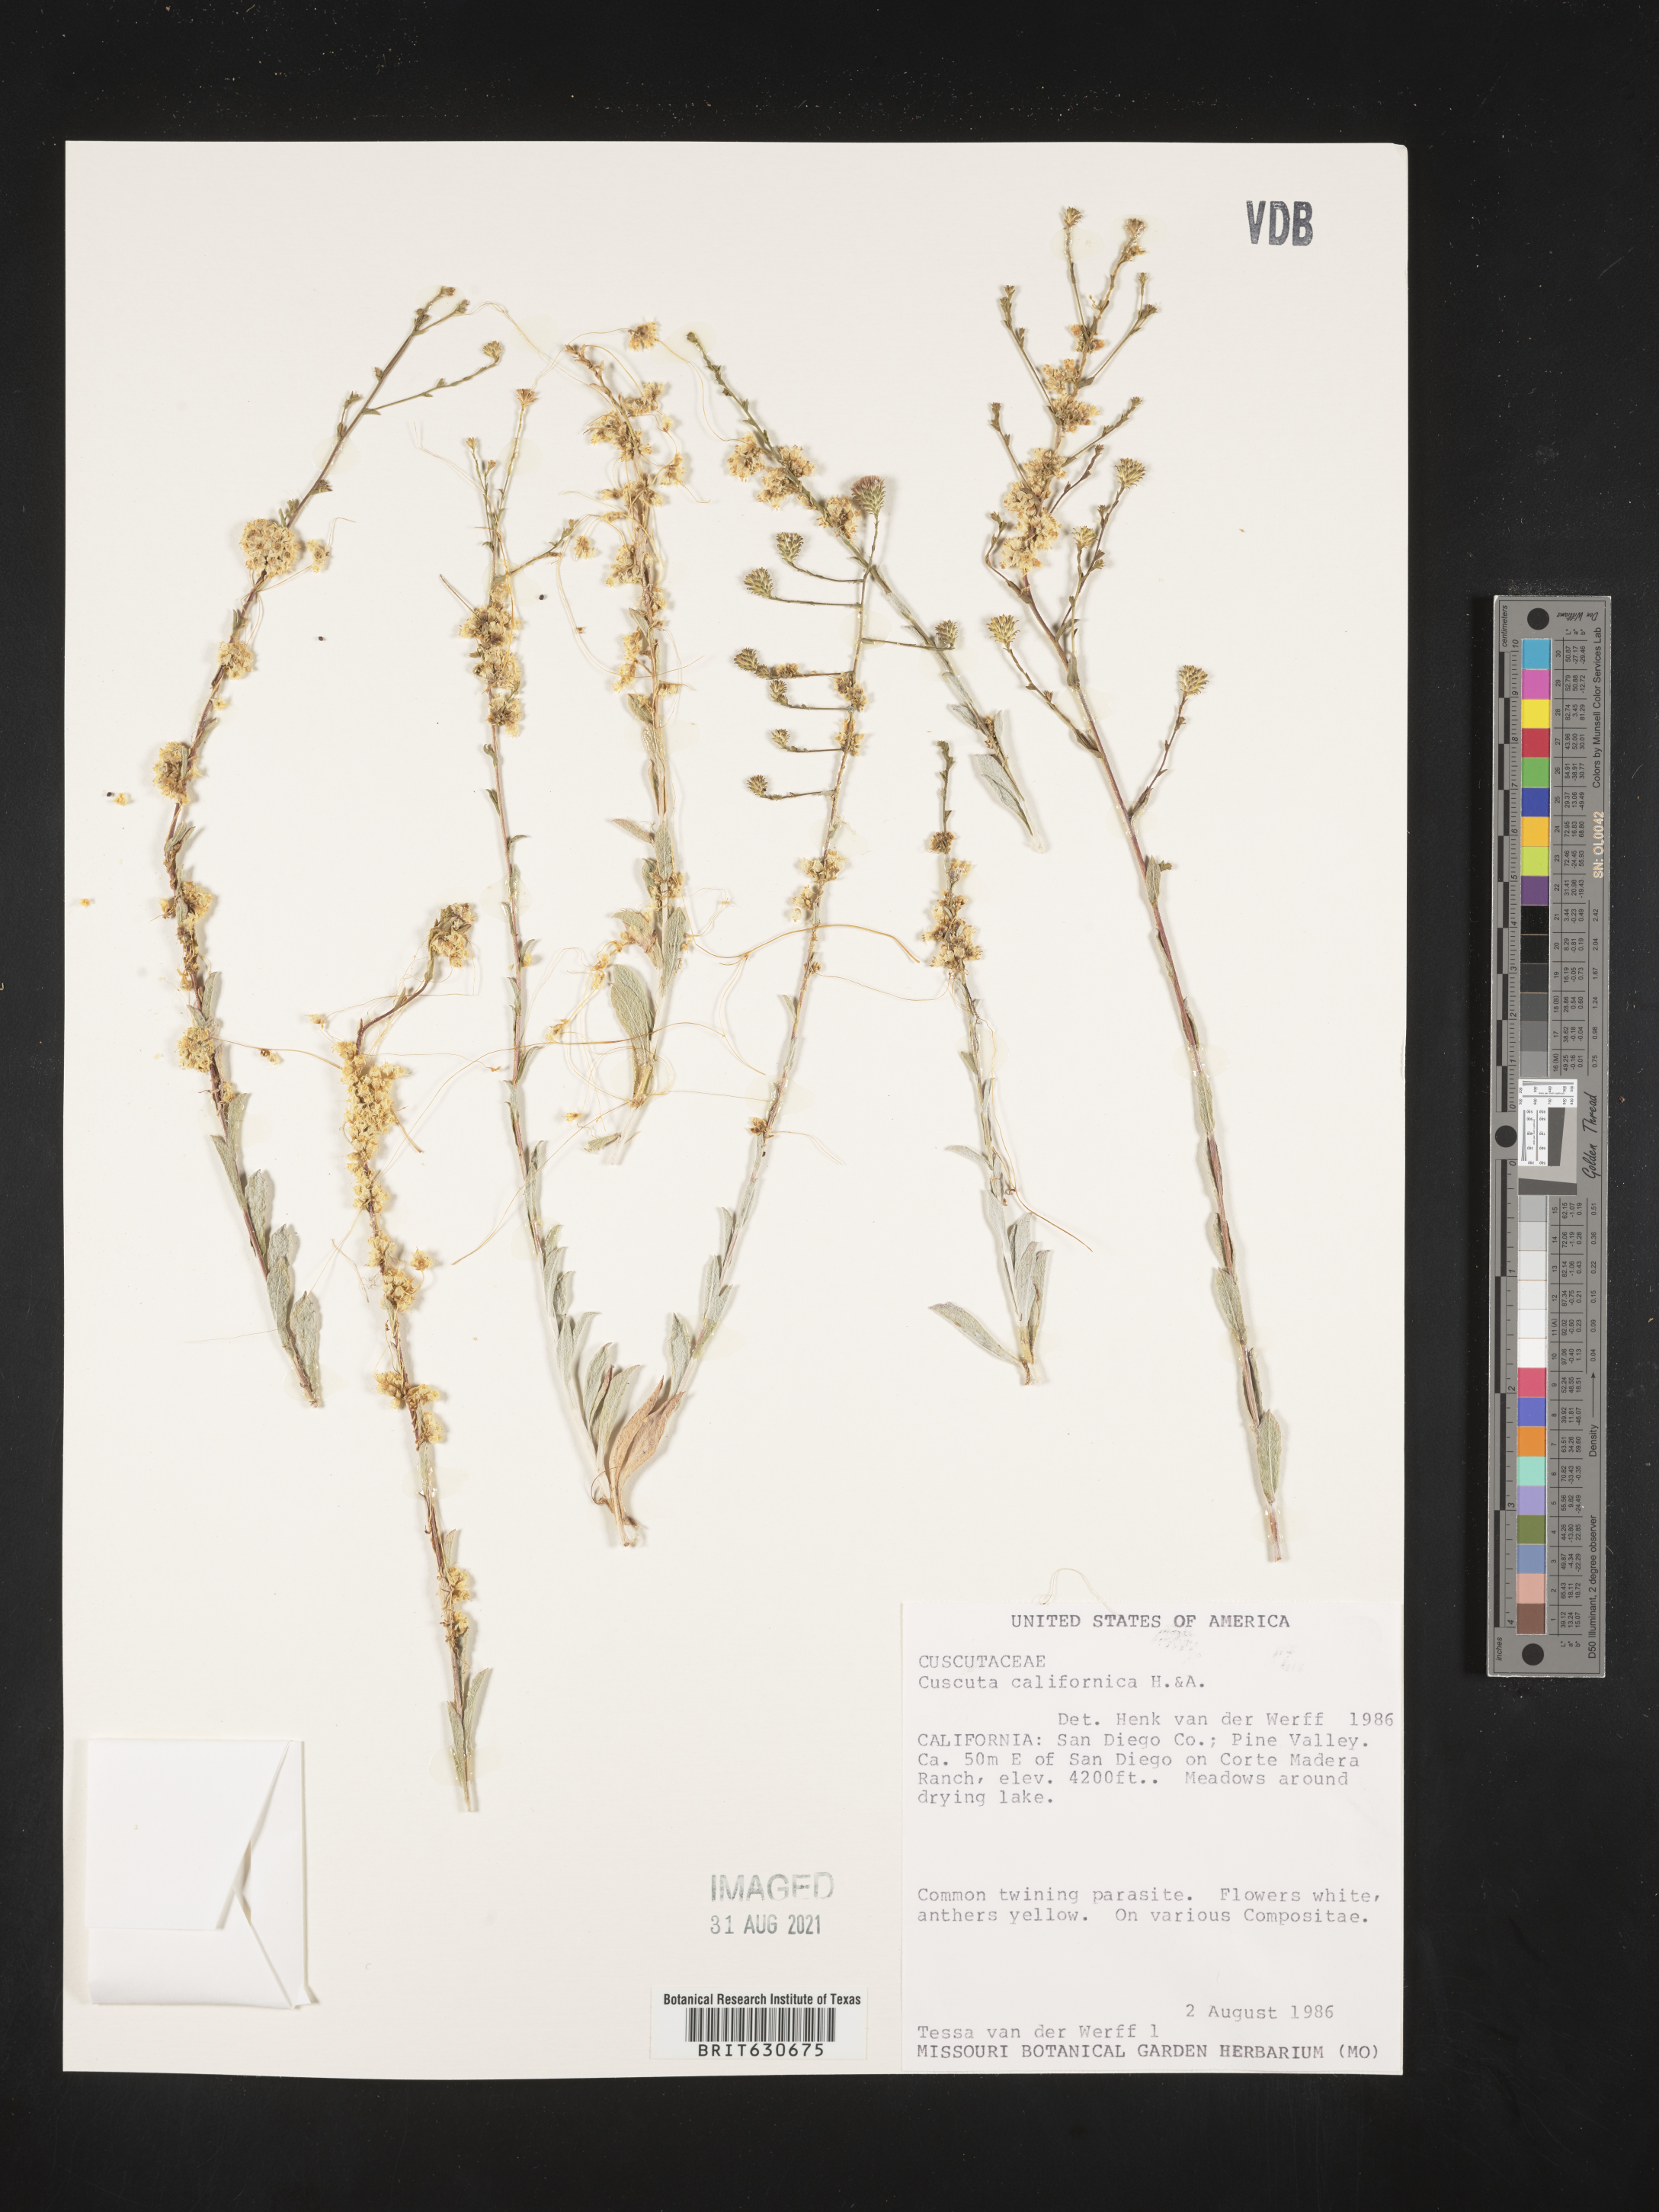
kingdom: Plantae
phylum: Tracheophyta
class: Magnoliopsida
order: Solanales
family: Convolvulaceae
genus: Cuscuta
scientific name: Cuscuta californica
